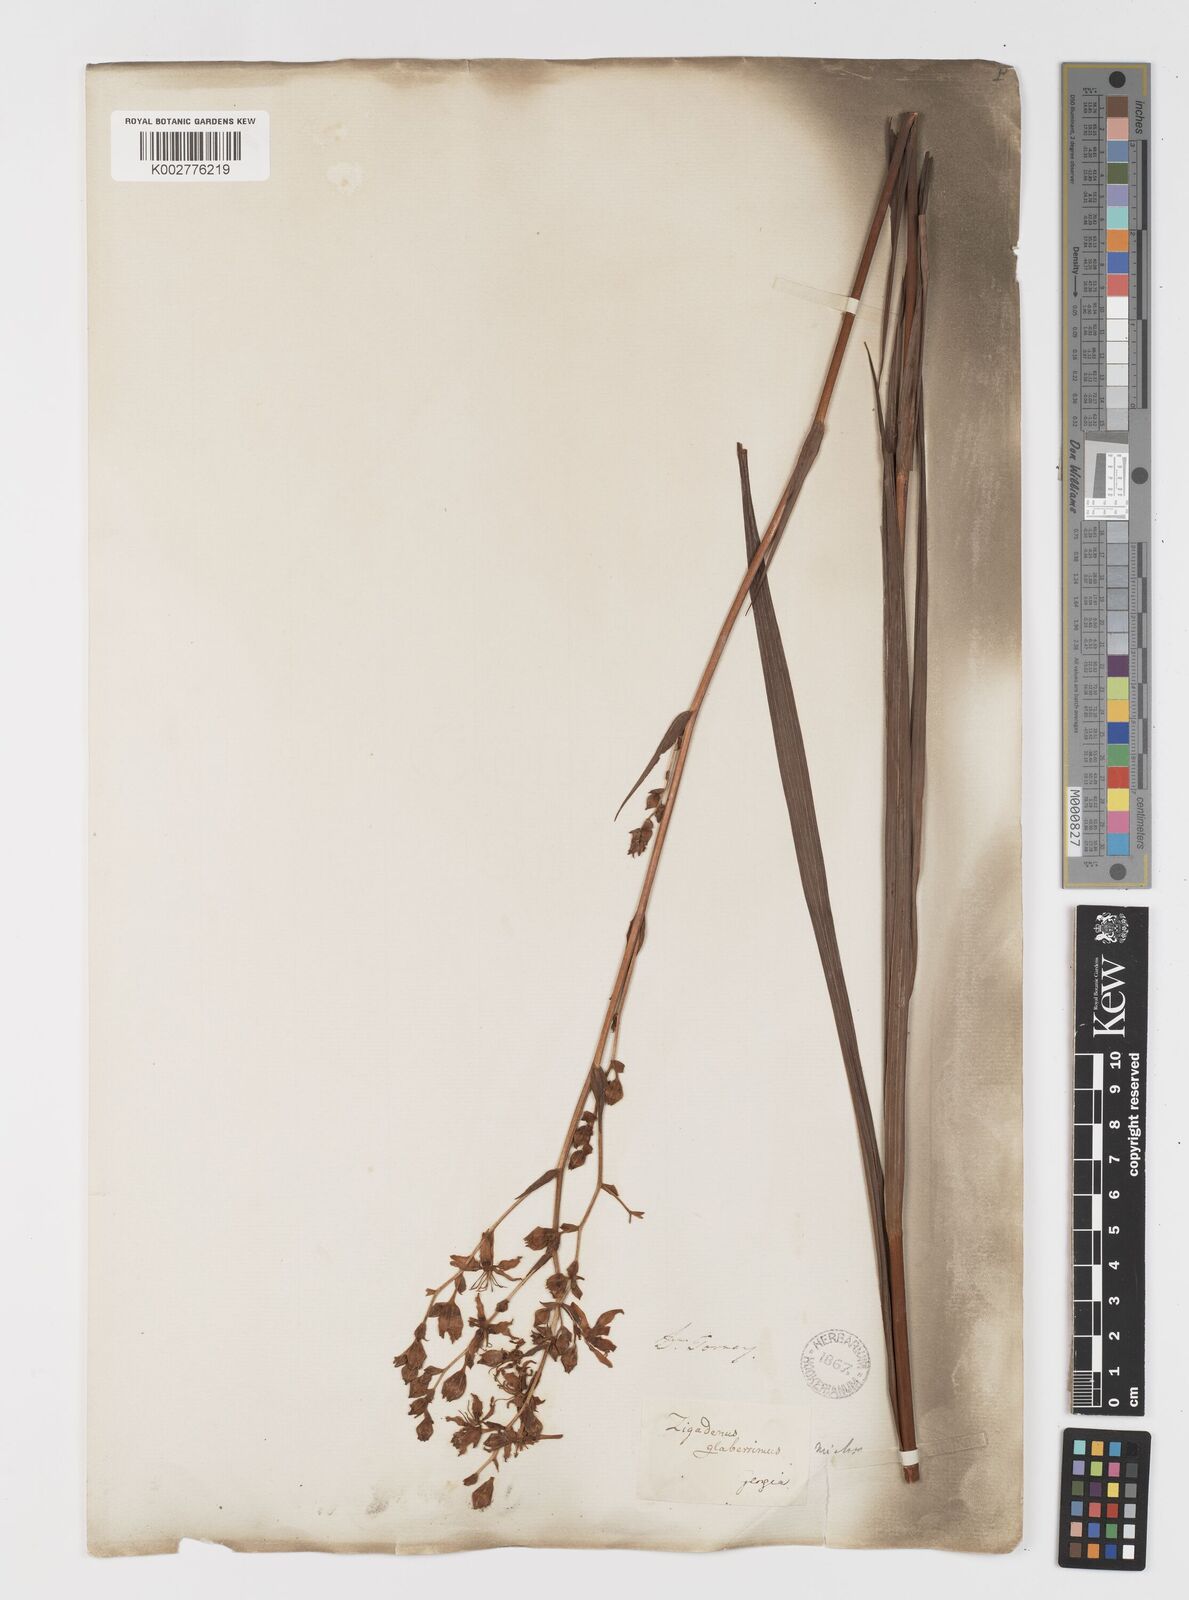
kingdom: Plantae
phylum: Tracheophyta
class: Liliopsida
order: Liliales
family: Melanthiaceae
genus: Zigadenus
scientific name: Zigadenus glaberrimus
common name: Sandbog death camas
